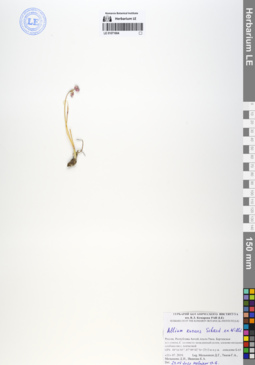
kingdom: Plantae
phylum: Tracheophyta
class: Liliopsida
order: Asparagales
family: Amaryllidaceae
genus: Allium
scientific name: Allium strictum
